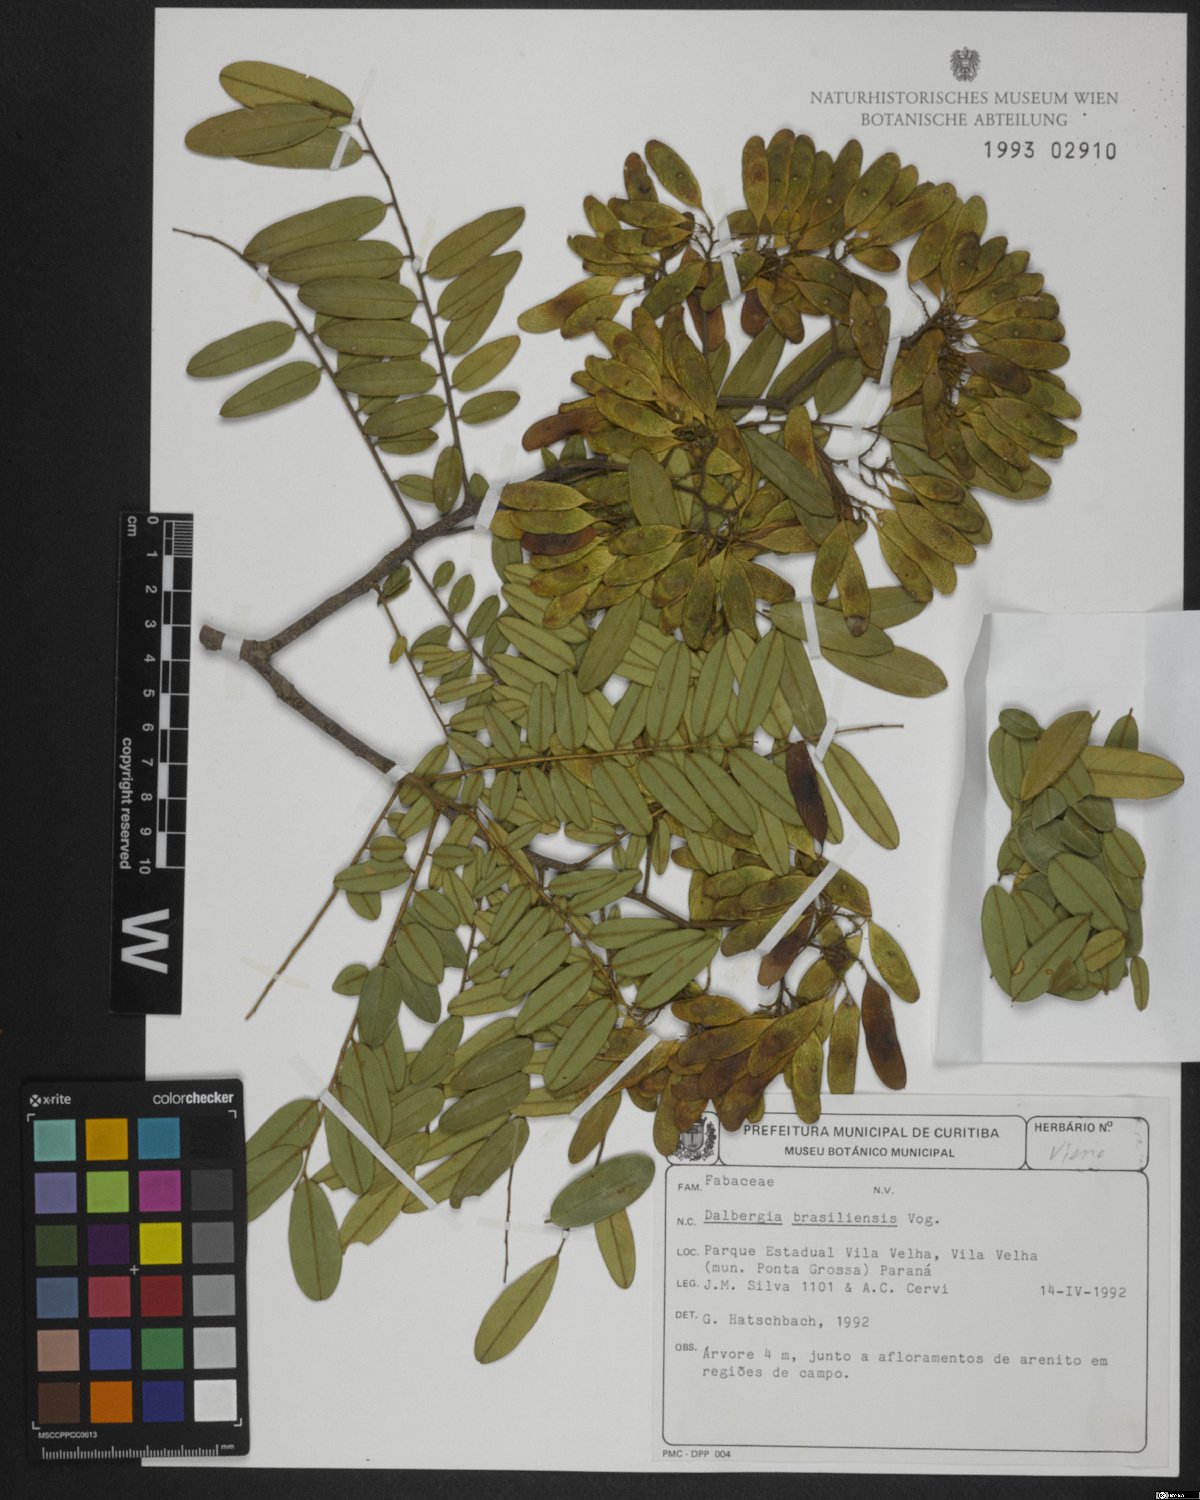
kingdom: Plantae
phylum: Tracheophyta
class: Magnoliopsida
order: Fabales
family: Fabaceae
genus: Dalbergia
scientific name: Dalbergia brasiliensis
